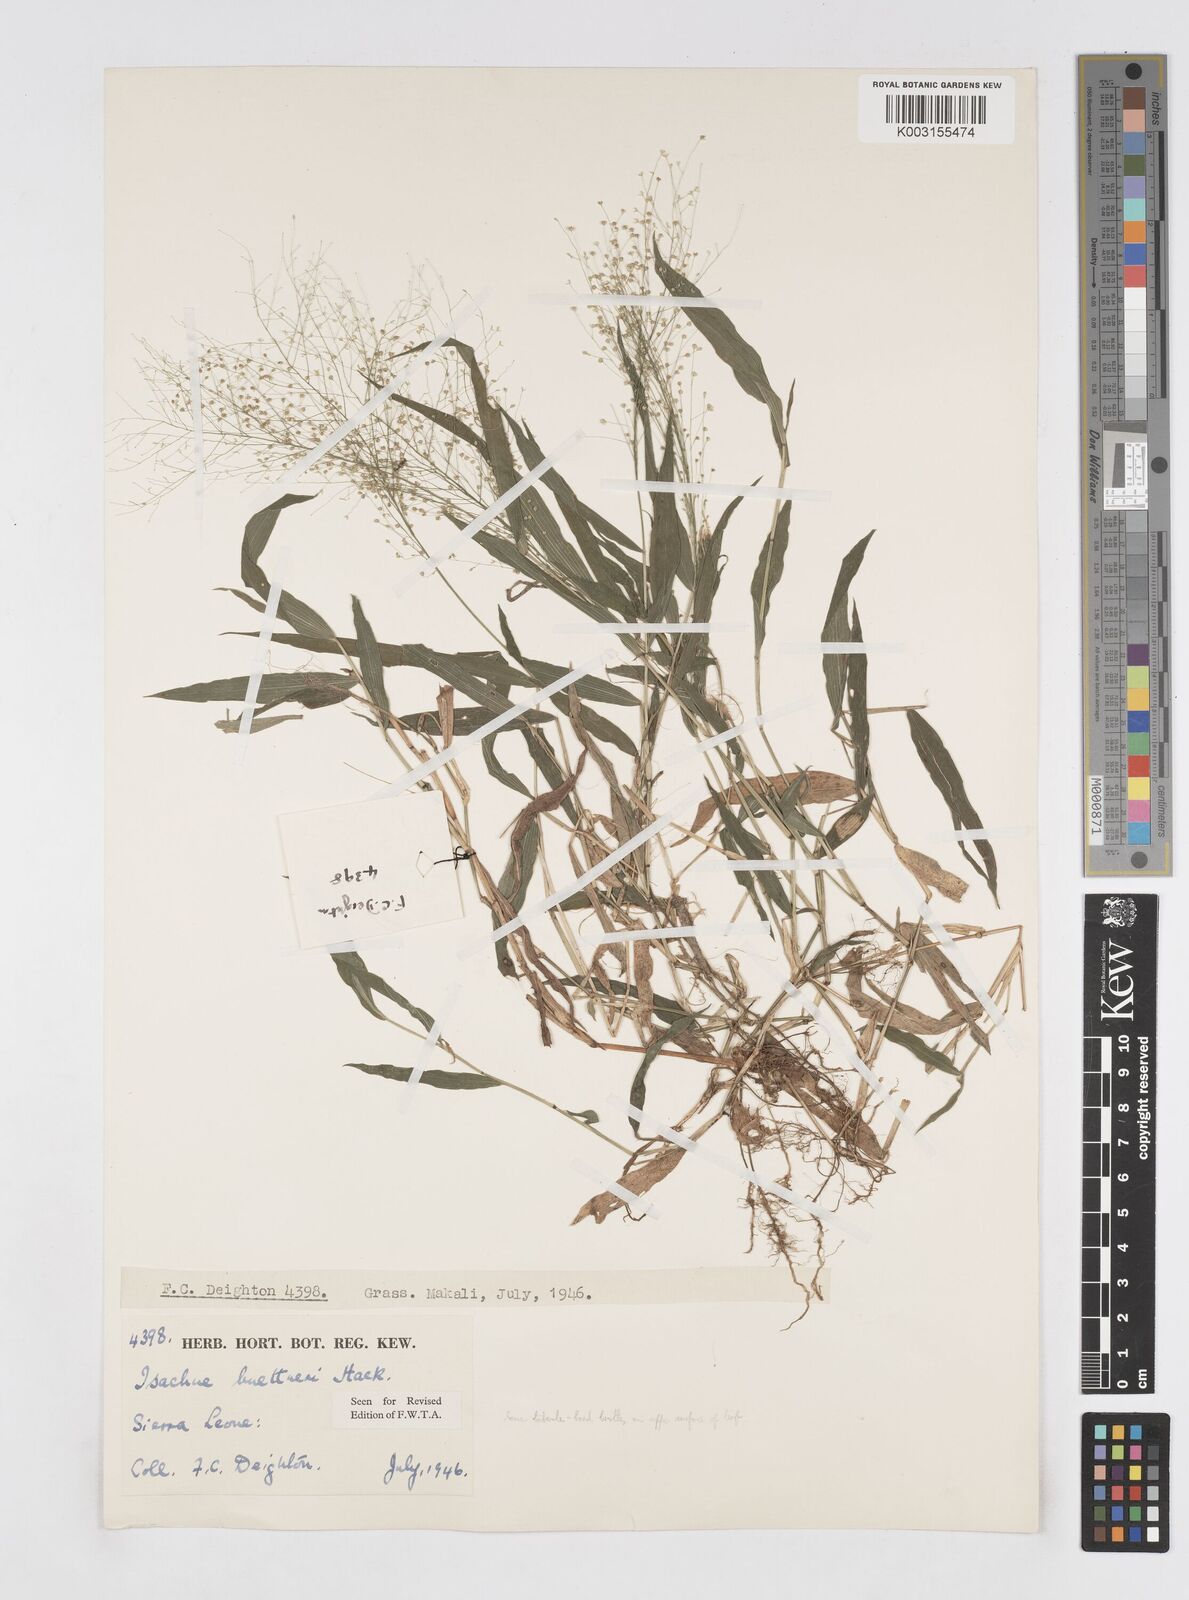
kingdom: Plantae
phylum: Tracheophyta
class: Liliopsida
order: Poales
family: Poaceae
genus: Isachne
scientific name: Isachne albens
